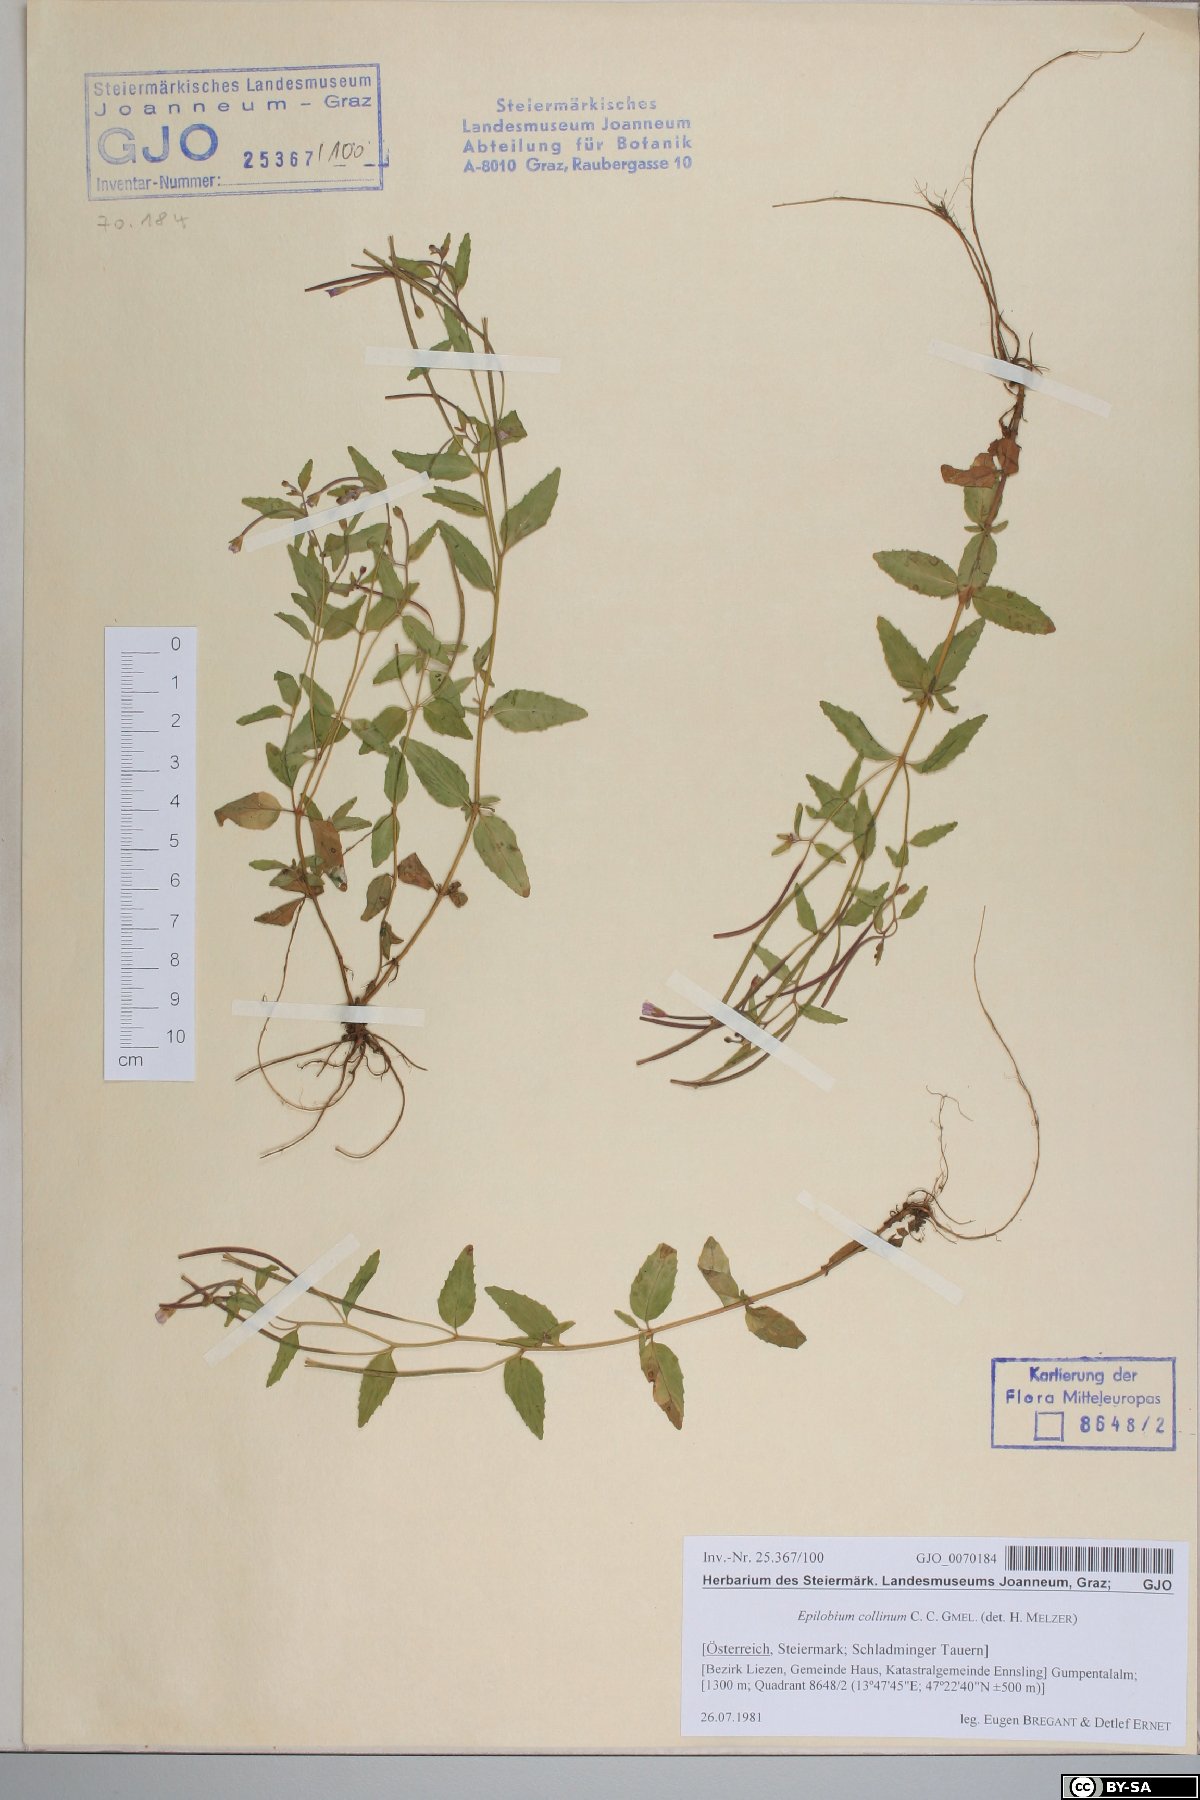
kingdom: Plantae
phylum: Tracheophyta
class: Magnoliopsida
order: Myrtales
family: Onagraceae
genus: Epilobium
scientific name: Epilobium collinum
